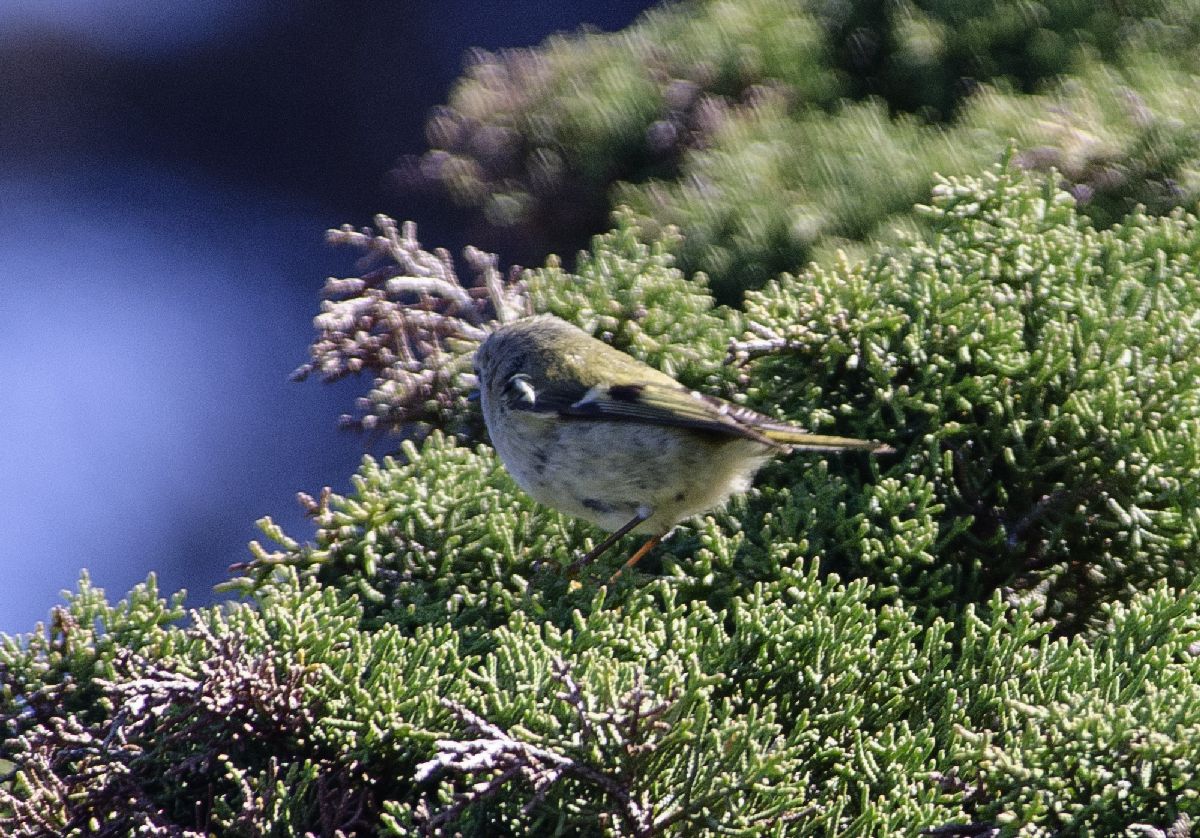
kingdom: Animalia
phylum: Chordata
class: Aves
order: Passeriformes
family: Regulidae
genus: Regulus
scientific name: Regulus regulus
